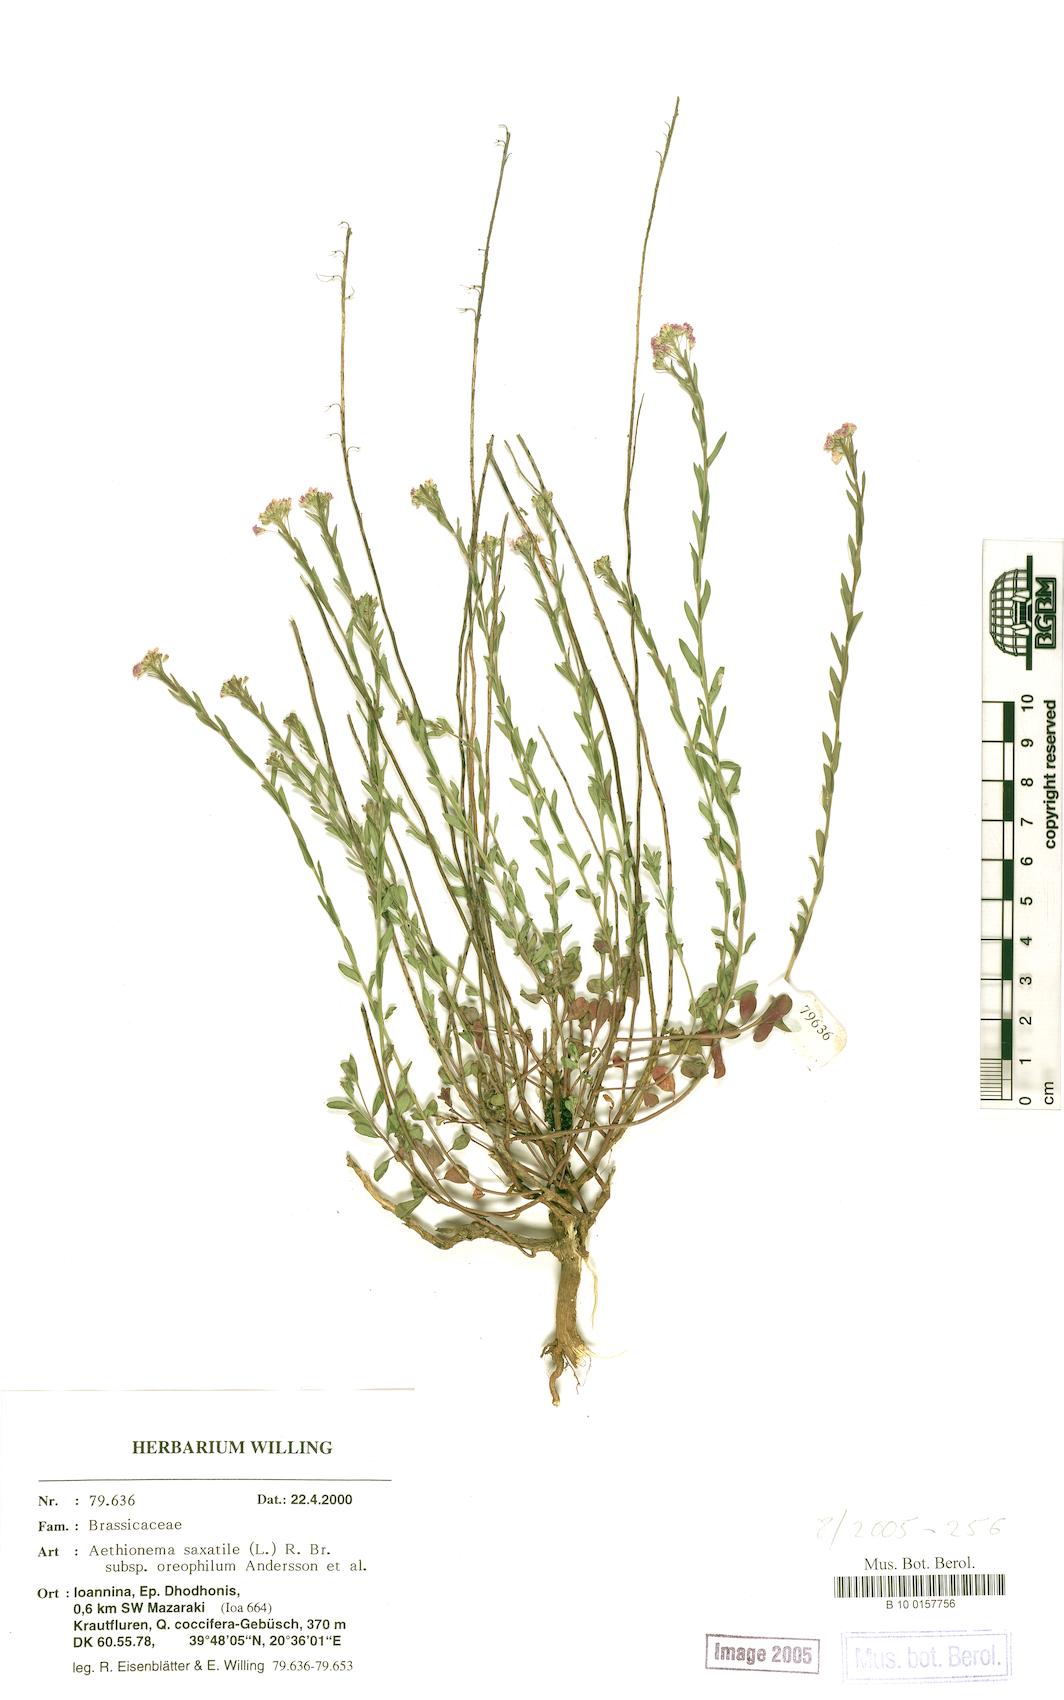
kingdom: Plantae
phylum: Tracheophyta
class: Magnoliopsida
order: Brassicales
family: Brassicaceae
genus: Aethionema
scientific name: Aethionema saxatile
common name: Burnt candytuft
